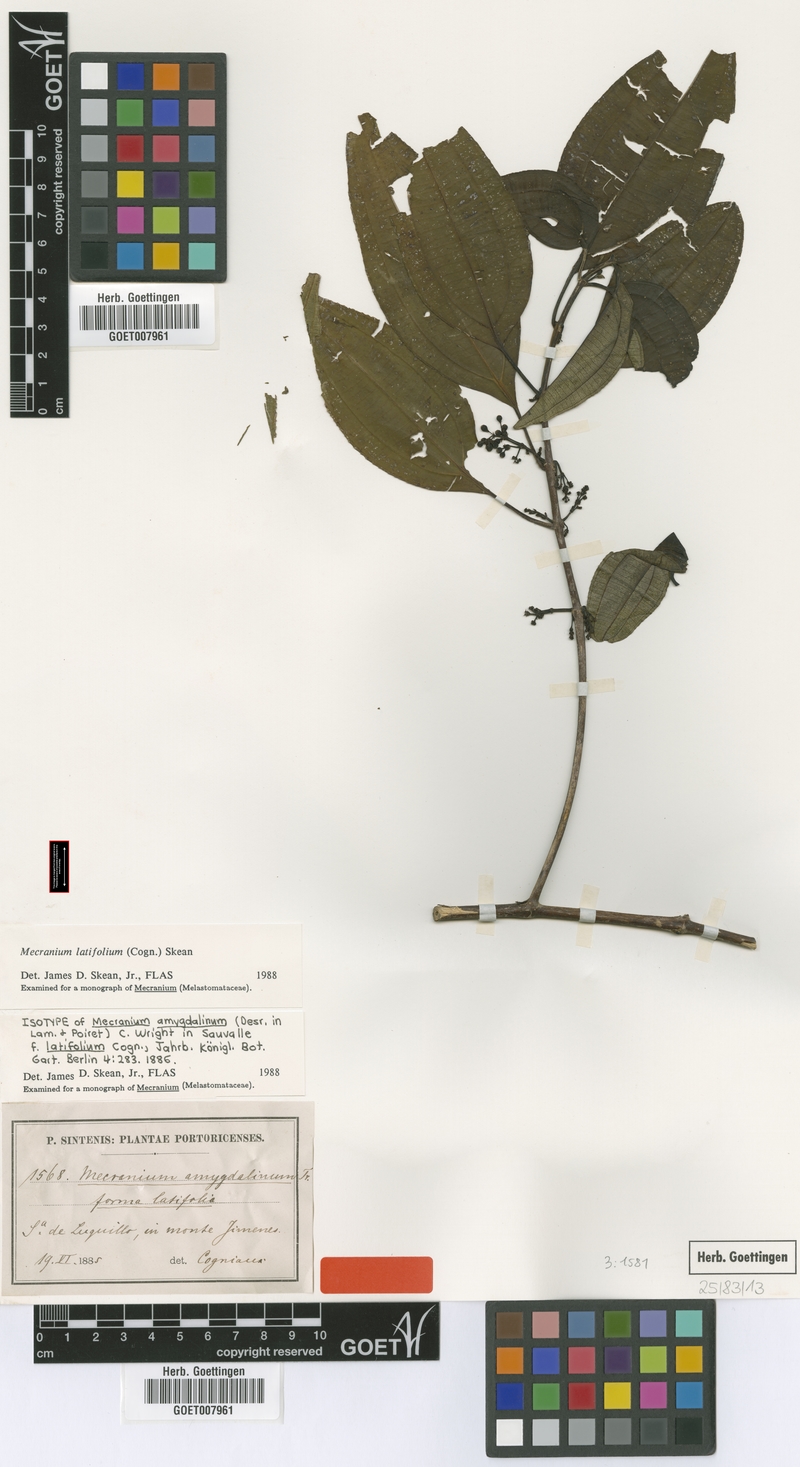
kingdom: Plantae
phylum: Tracheophyta
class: Magnoliopsida
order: Myrtales
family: Melastomataceae
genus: Miconia
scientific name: Miconia borinquensis
